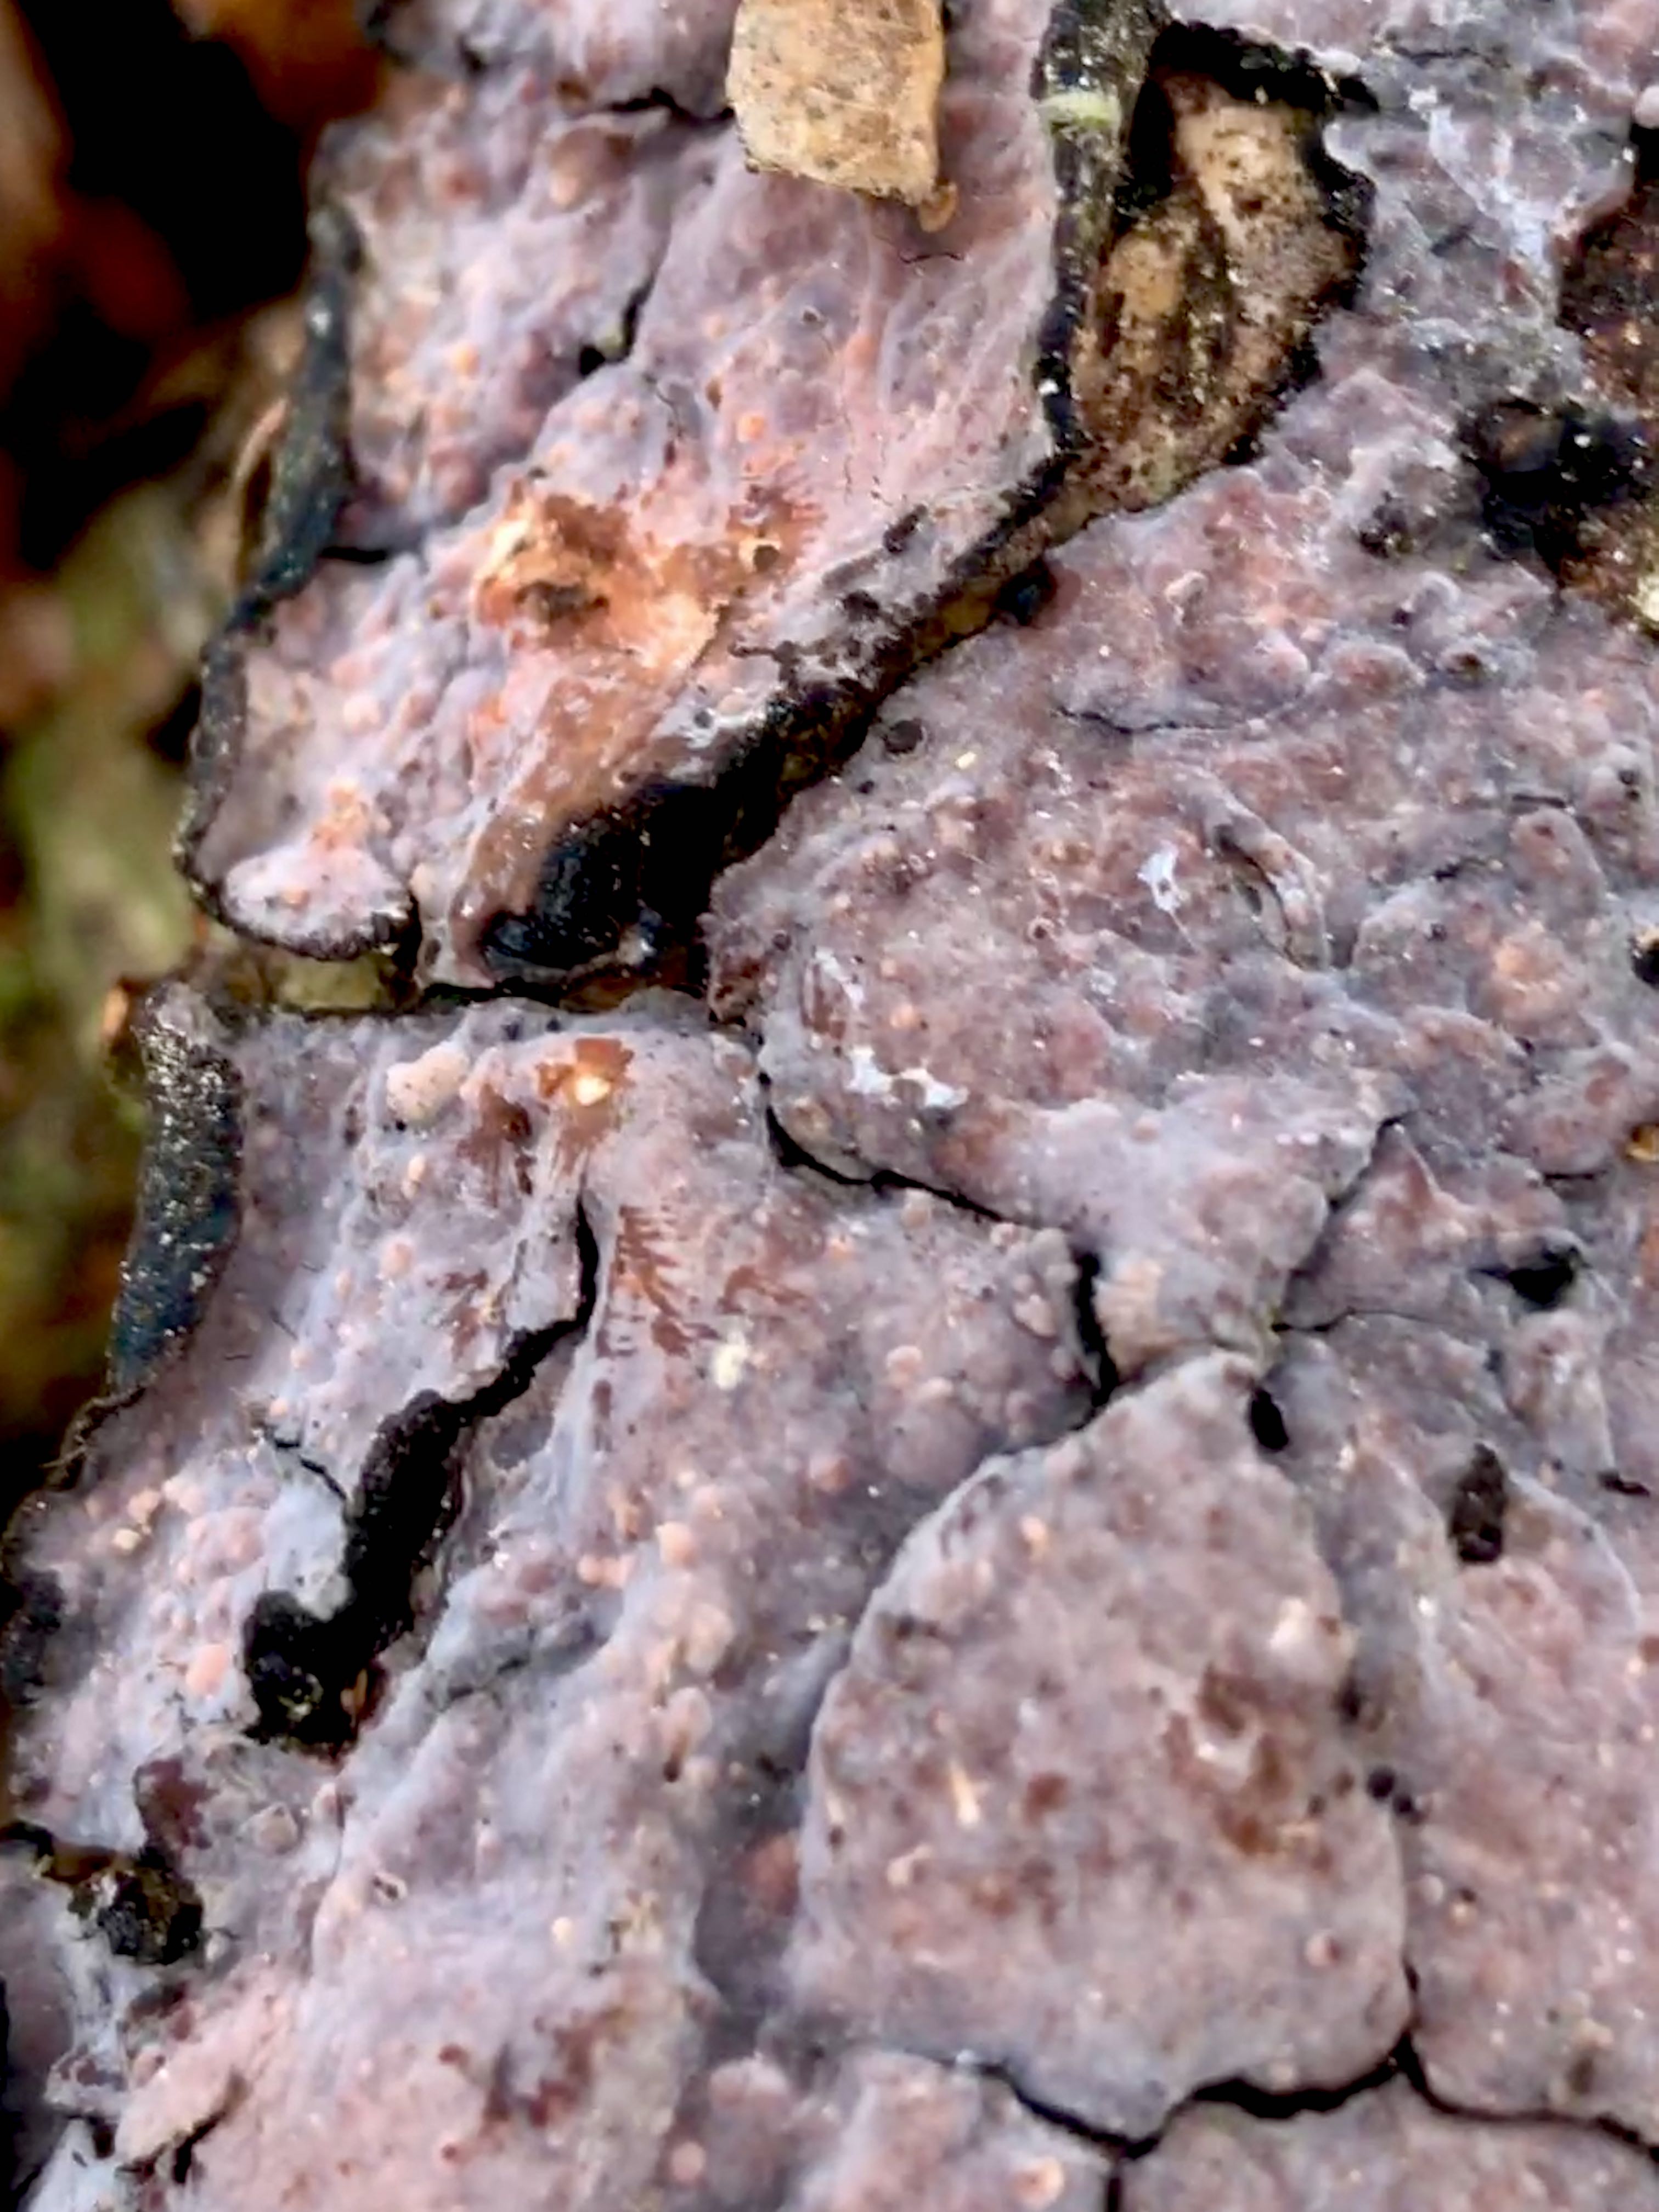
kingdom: Fungi
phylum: Basidiomycota
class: Agaricomycetes
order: Russulales
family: Peniophoraceae
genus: Peniophora
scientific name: Peniophora quercina
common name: ege-voksskind
